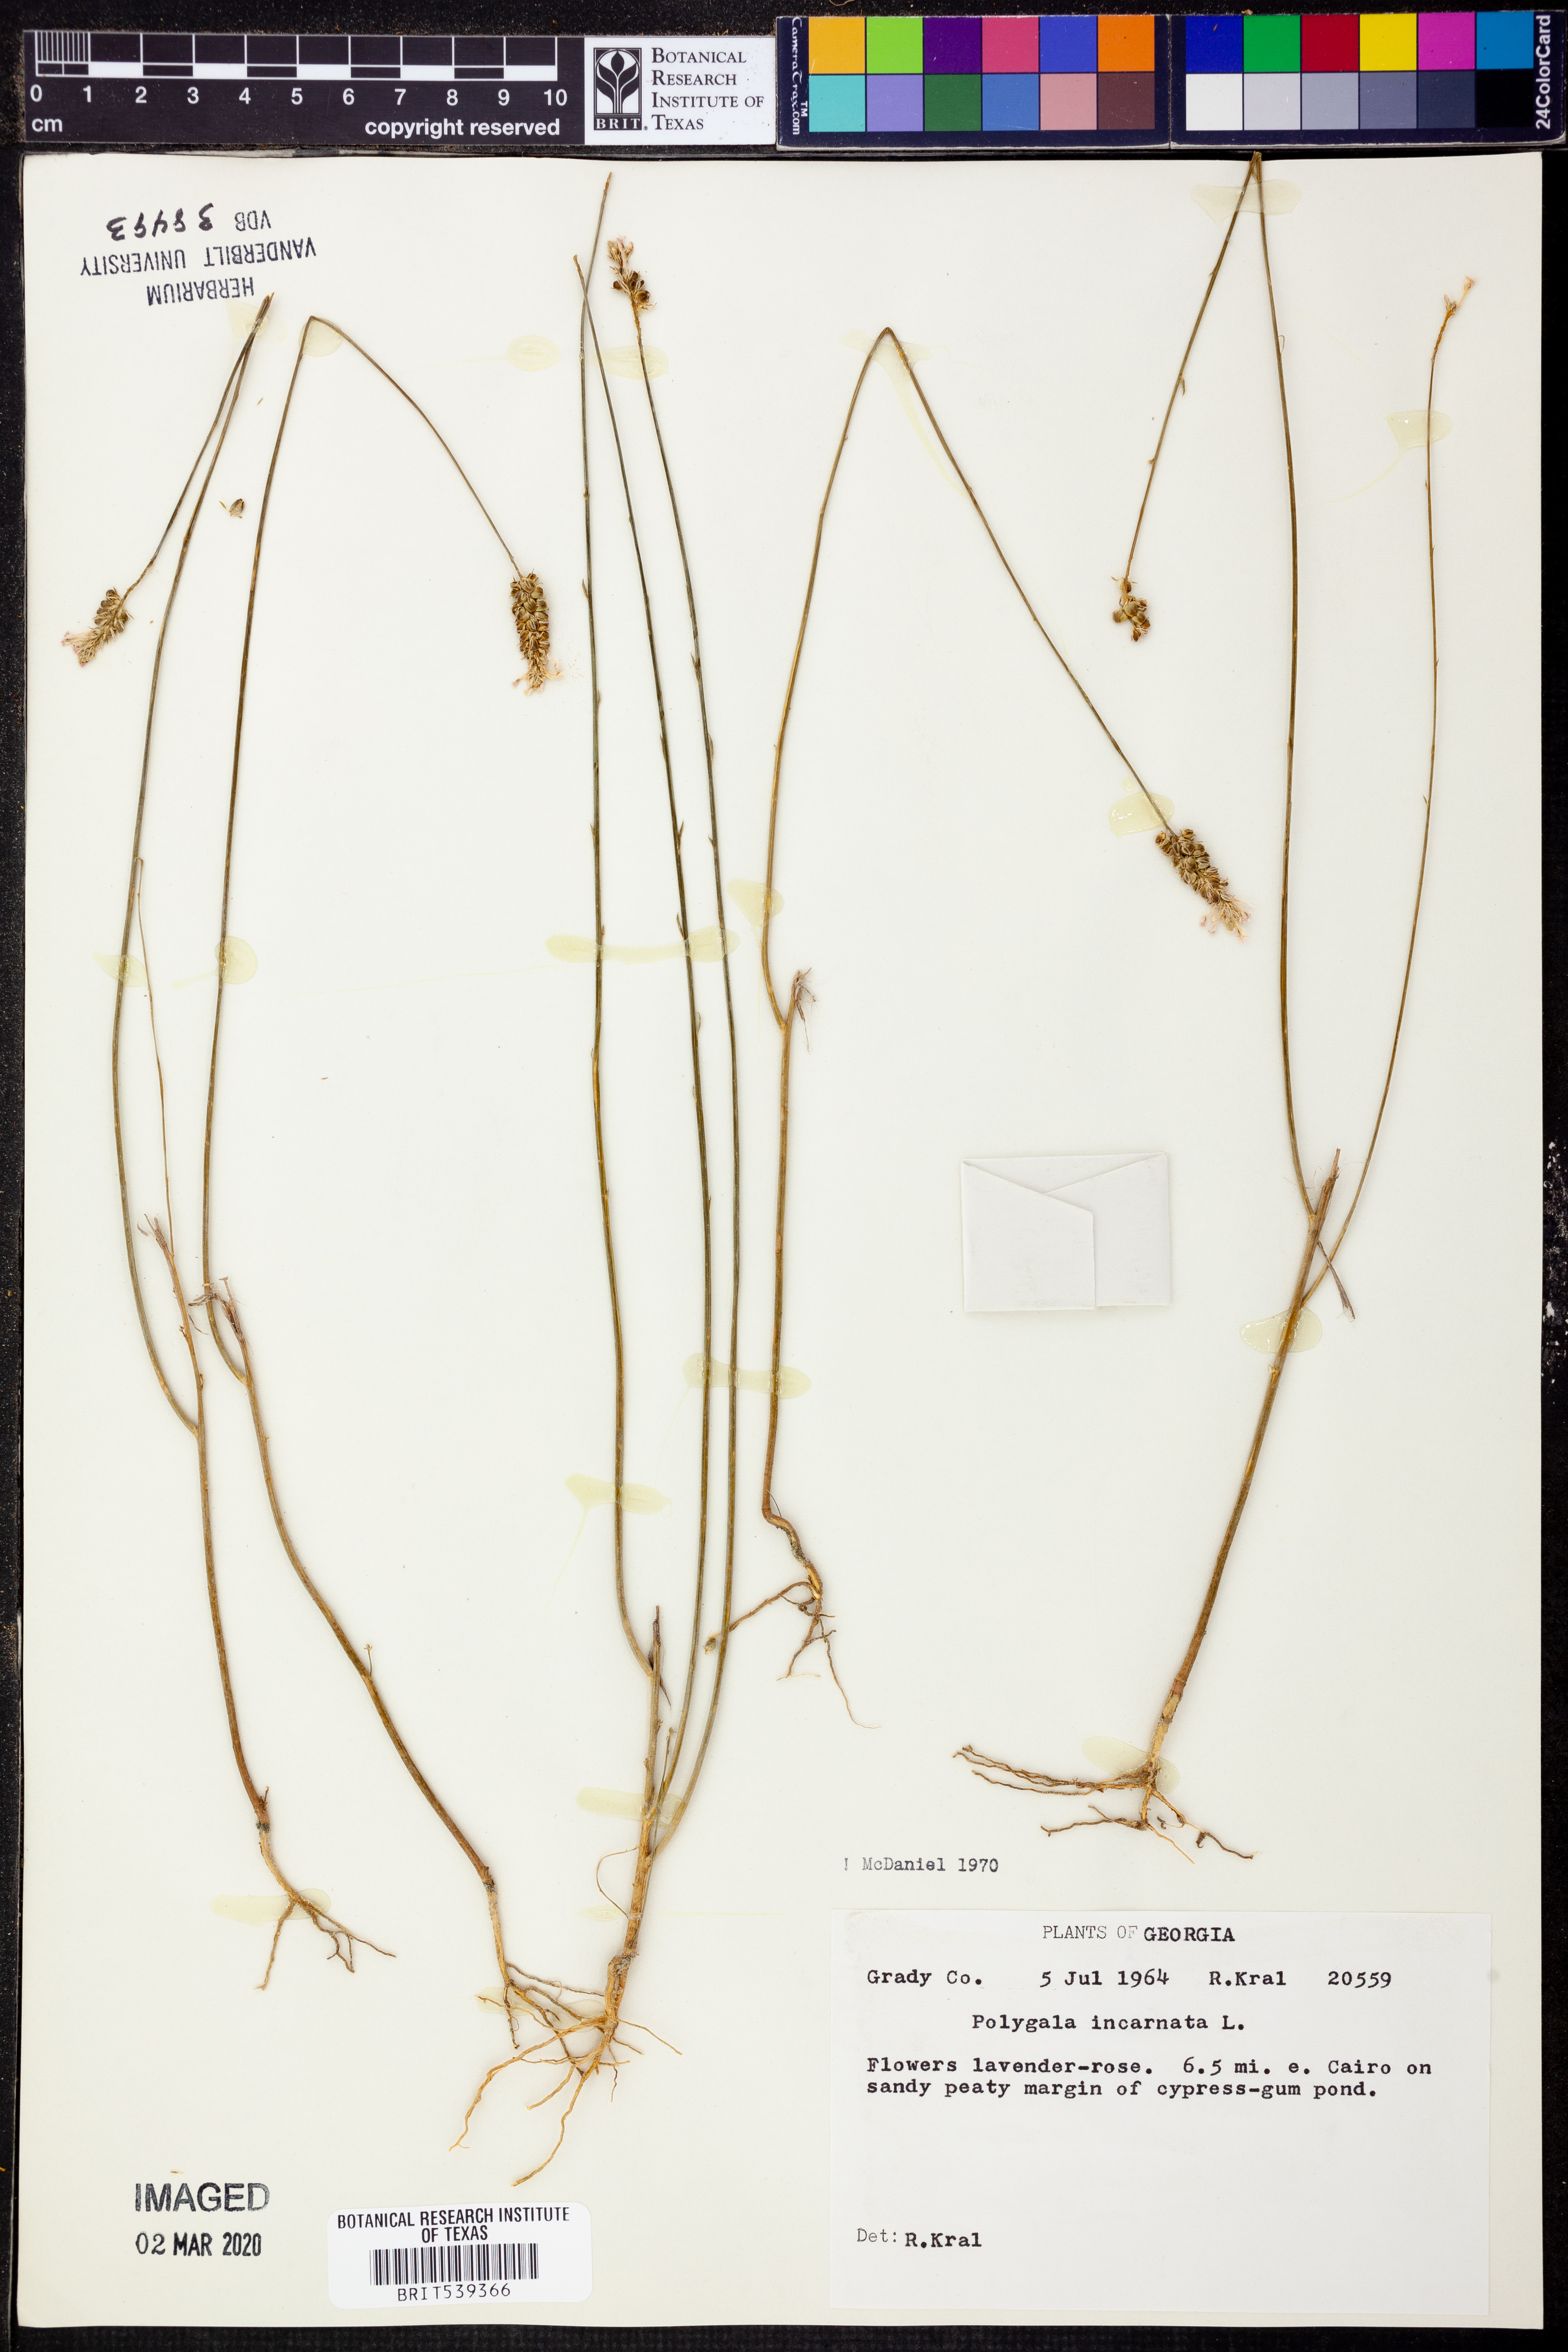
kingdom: Plantae
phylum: Tracheophyta
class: Magnoliopsida
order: Fabales
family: Polygalaceae
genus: Polygala
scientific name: Polygala incarnata
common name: Pink milkwort
